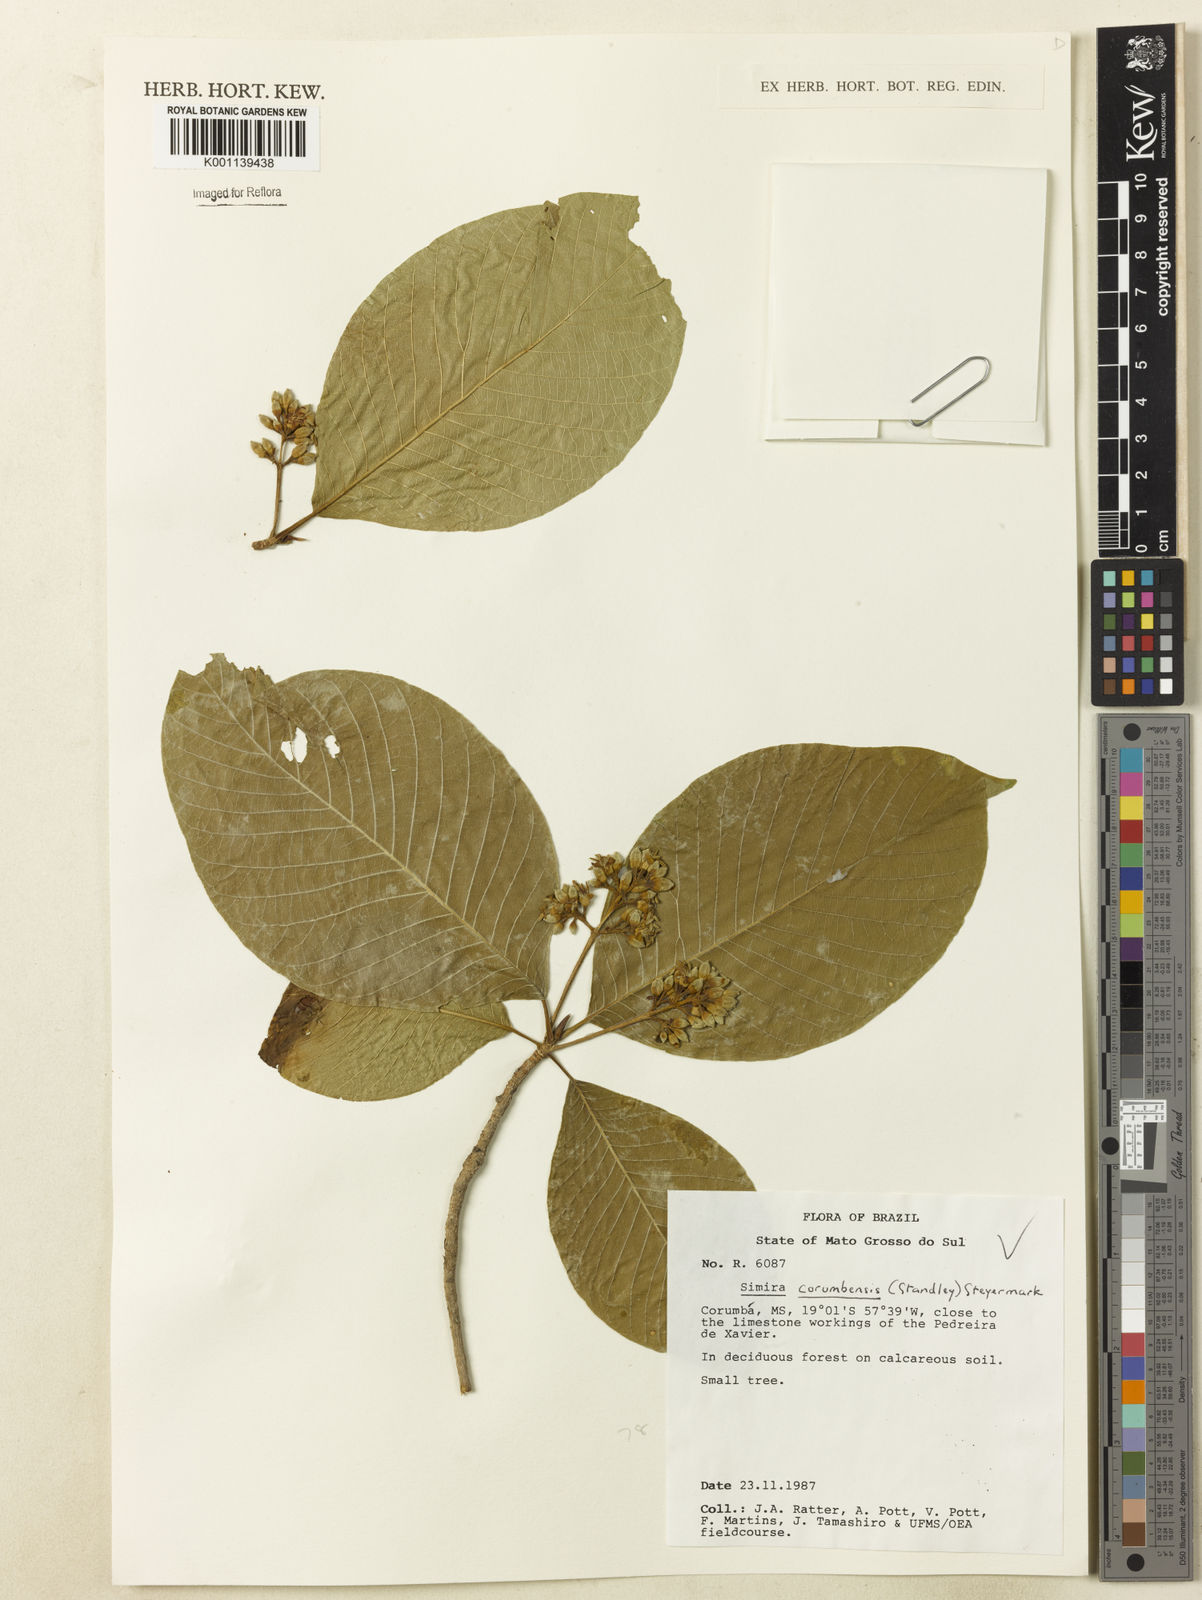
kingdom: Plantae
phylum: Tracheophyta
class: Magnoliopsida
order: Gentianales
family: Rubiaceae
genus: Simira
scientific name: Simira corumbensis
